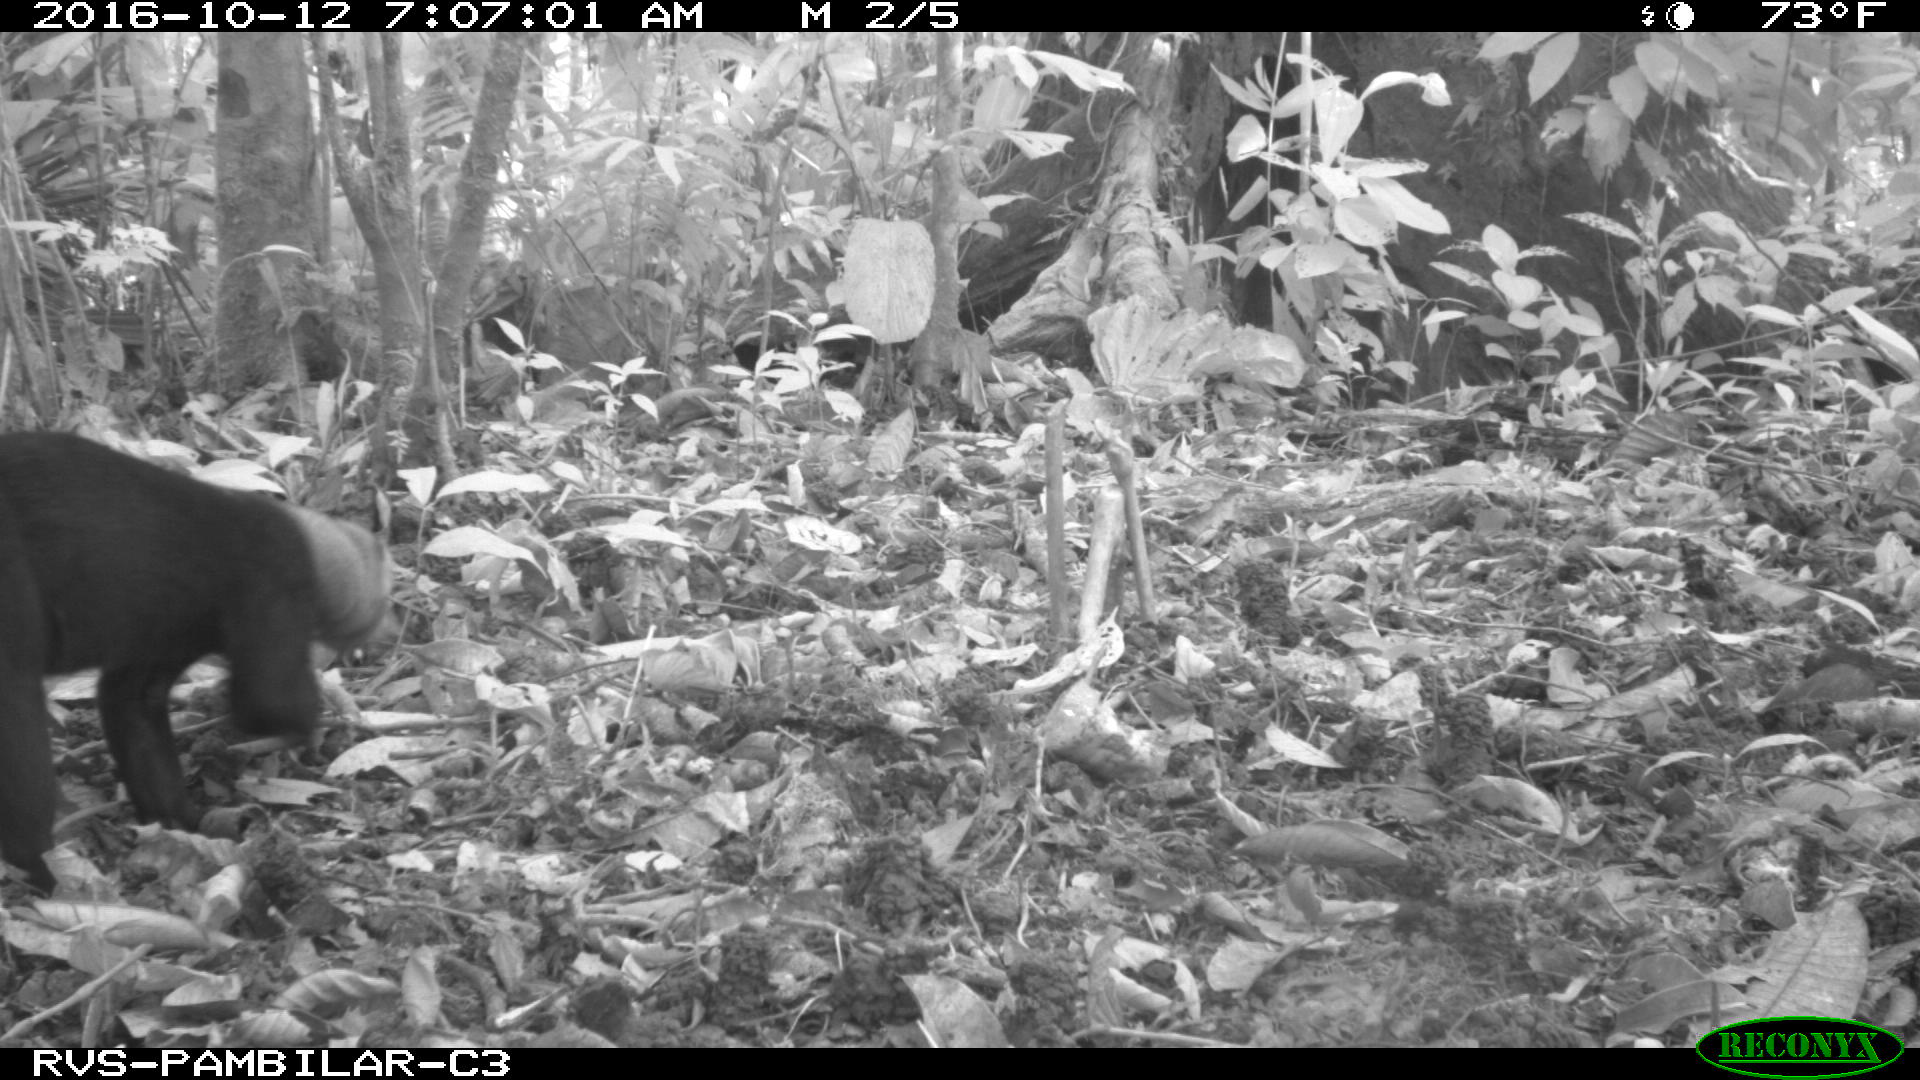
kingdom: Animalia
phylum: Chordata
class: Mammalia
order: Carnivora
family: Mustelidae
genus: Eira
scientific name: Eira barbara
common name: Tayra
